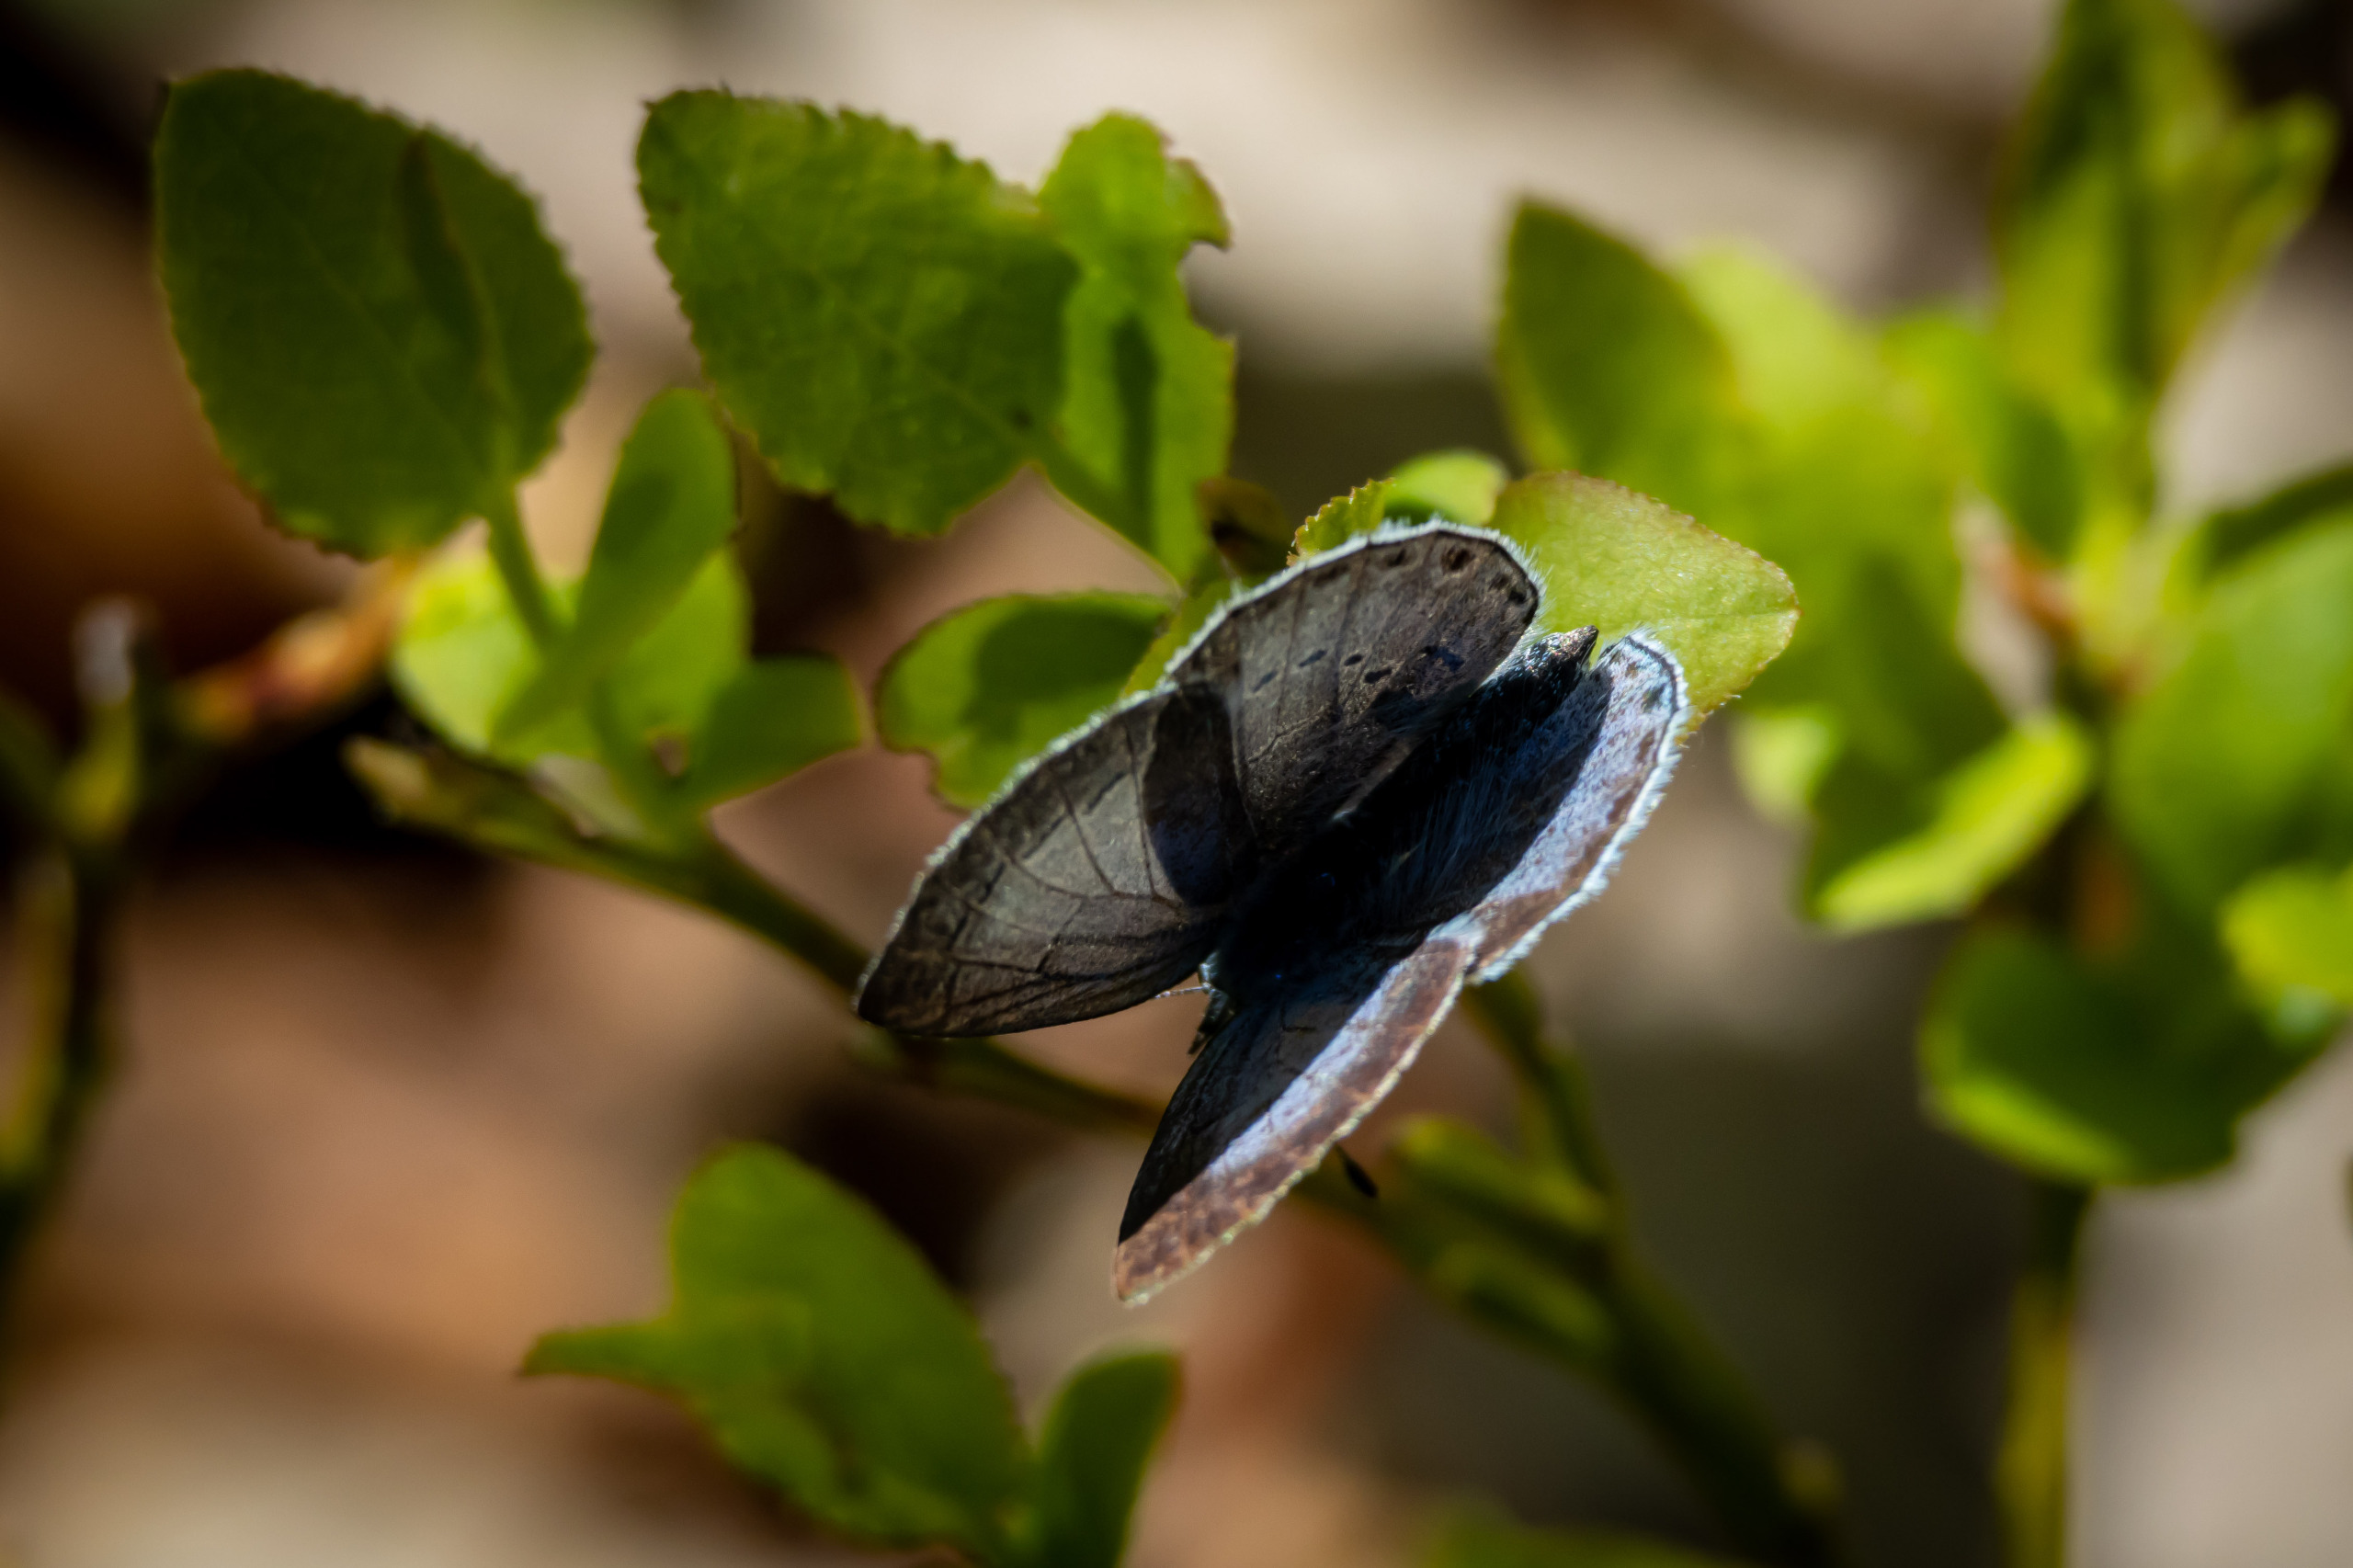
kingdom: Animalia
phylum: Arthropoda
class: Insecta
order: Lepidoptera
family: Lycaenidae
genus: Celastrina
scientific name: Celastrina argiolus
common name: Skovblåfugl
